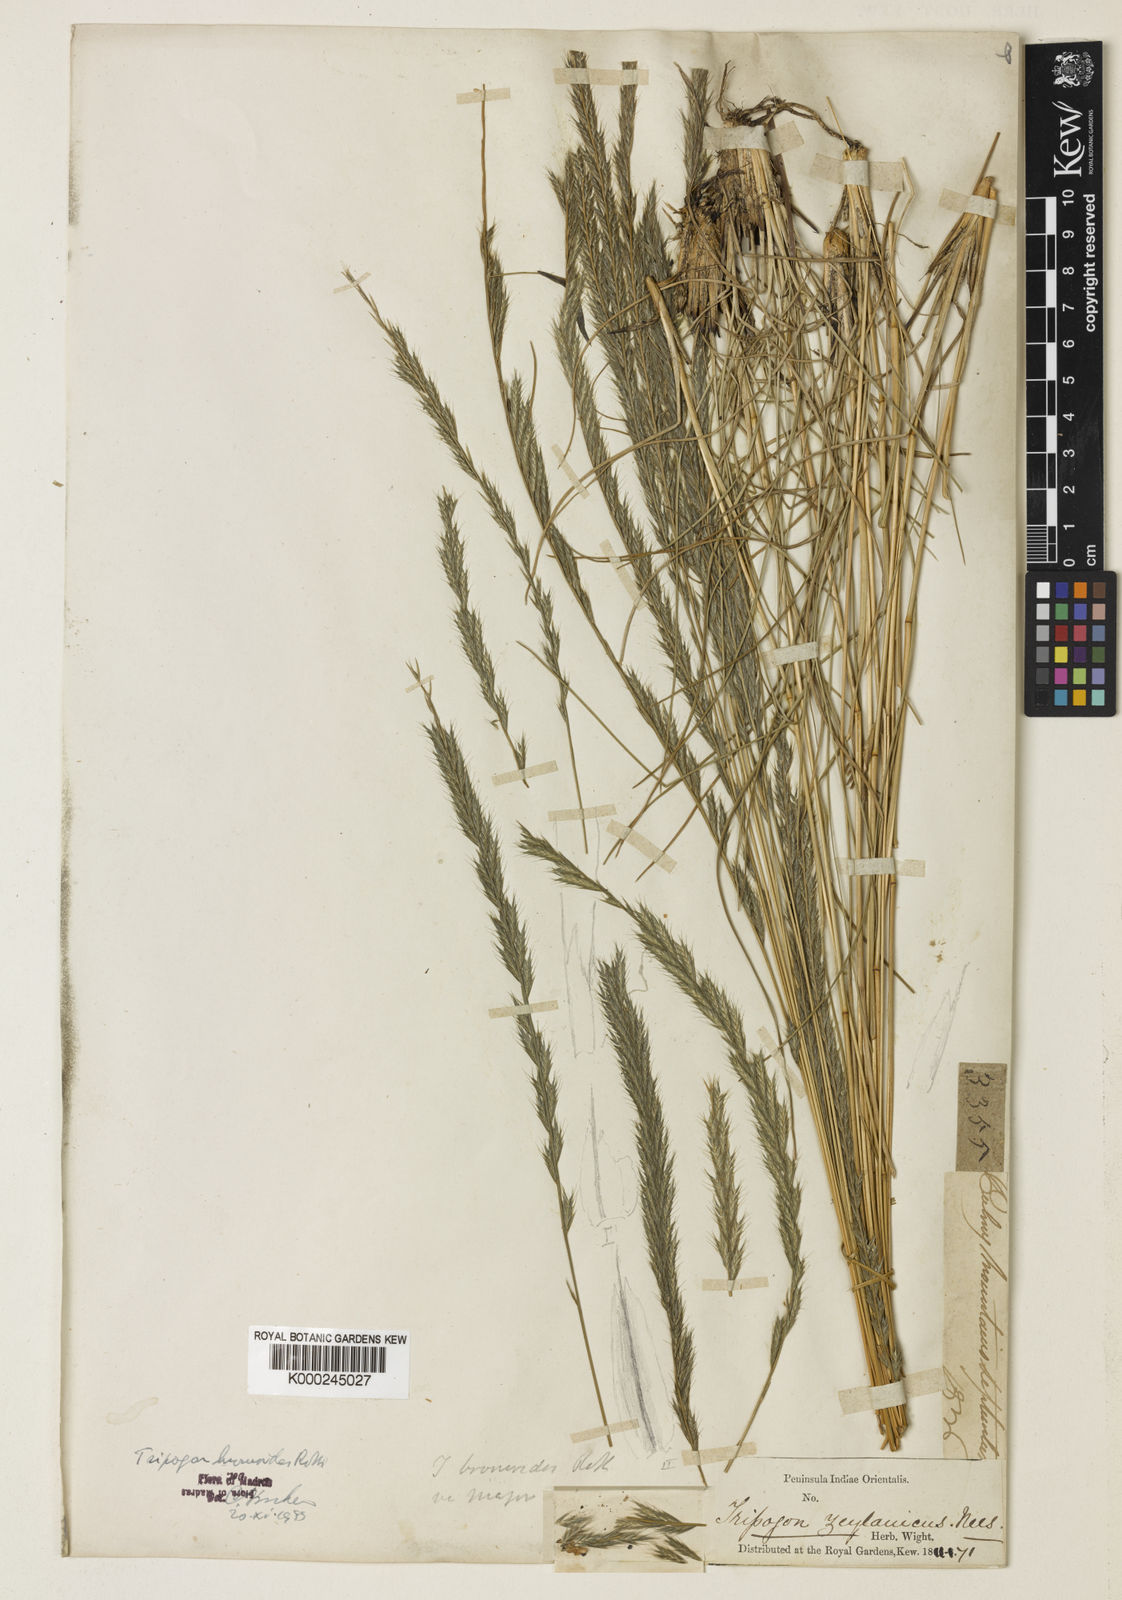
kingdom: Plantae
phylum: Tracheophyta
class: Liliopsida
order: Poales
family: Poaceae
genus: Tripogon
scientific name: Tripogon
